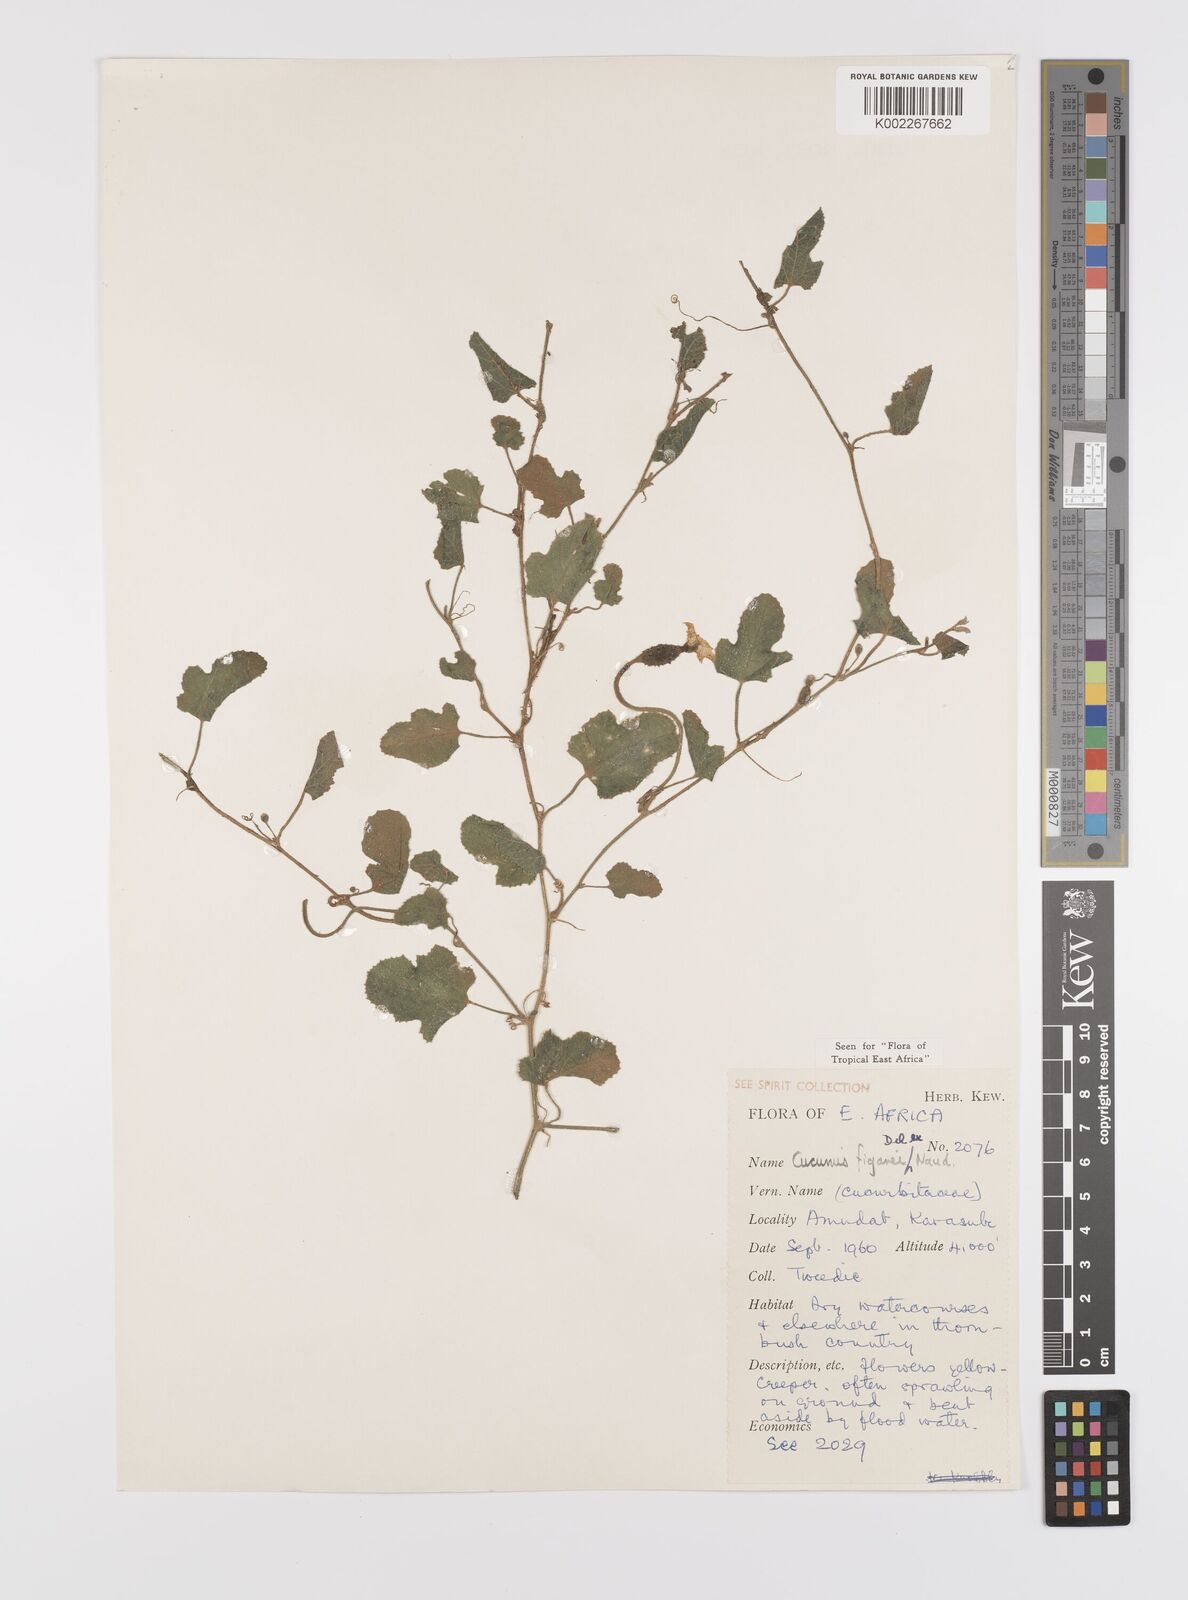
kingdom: Plantae
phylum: Tracheophyta
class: Magnoliopsida
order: Cucurbitales
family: Cucurbitaceae
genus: Cucumis
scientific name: Cucumis pustulatus
